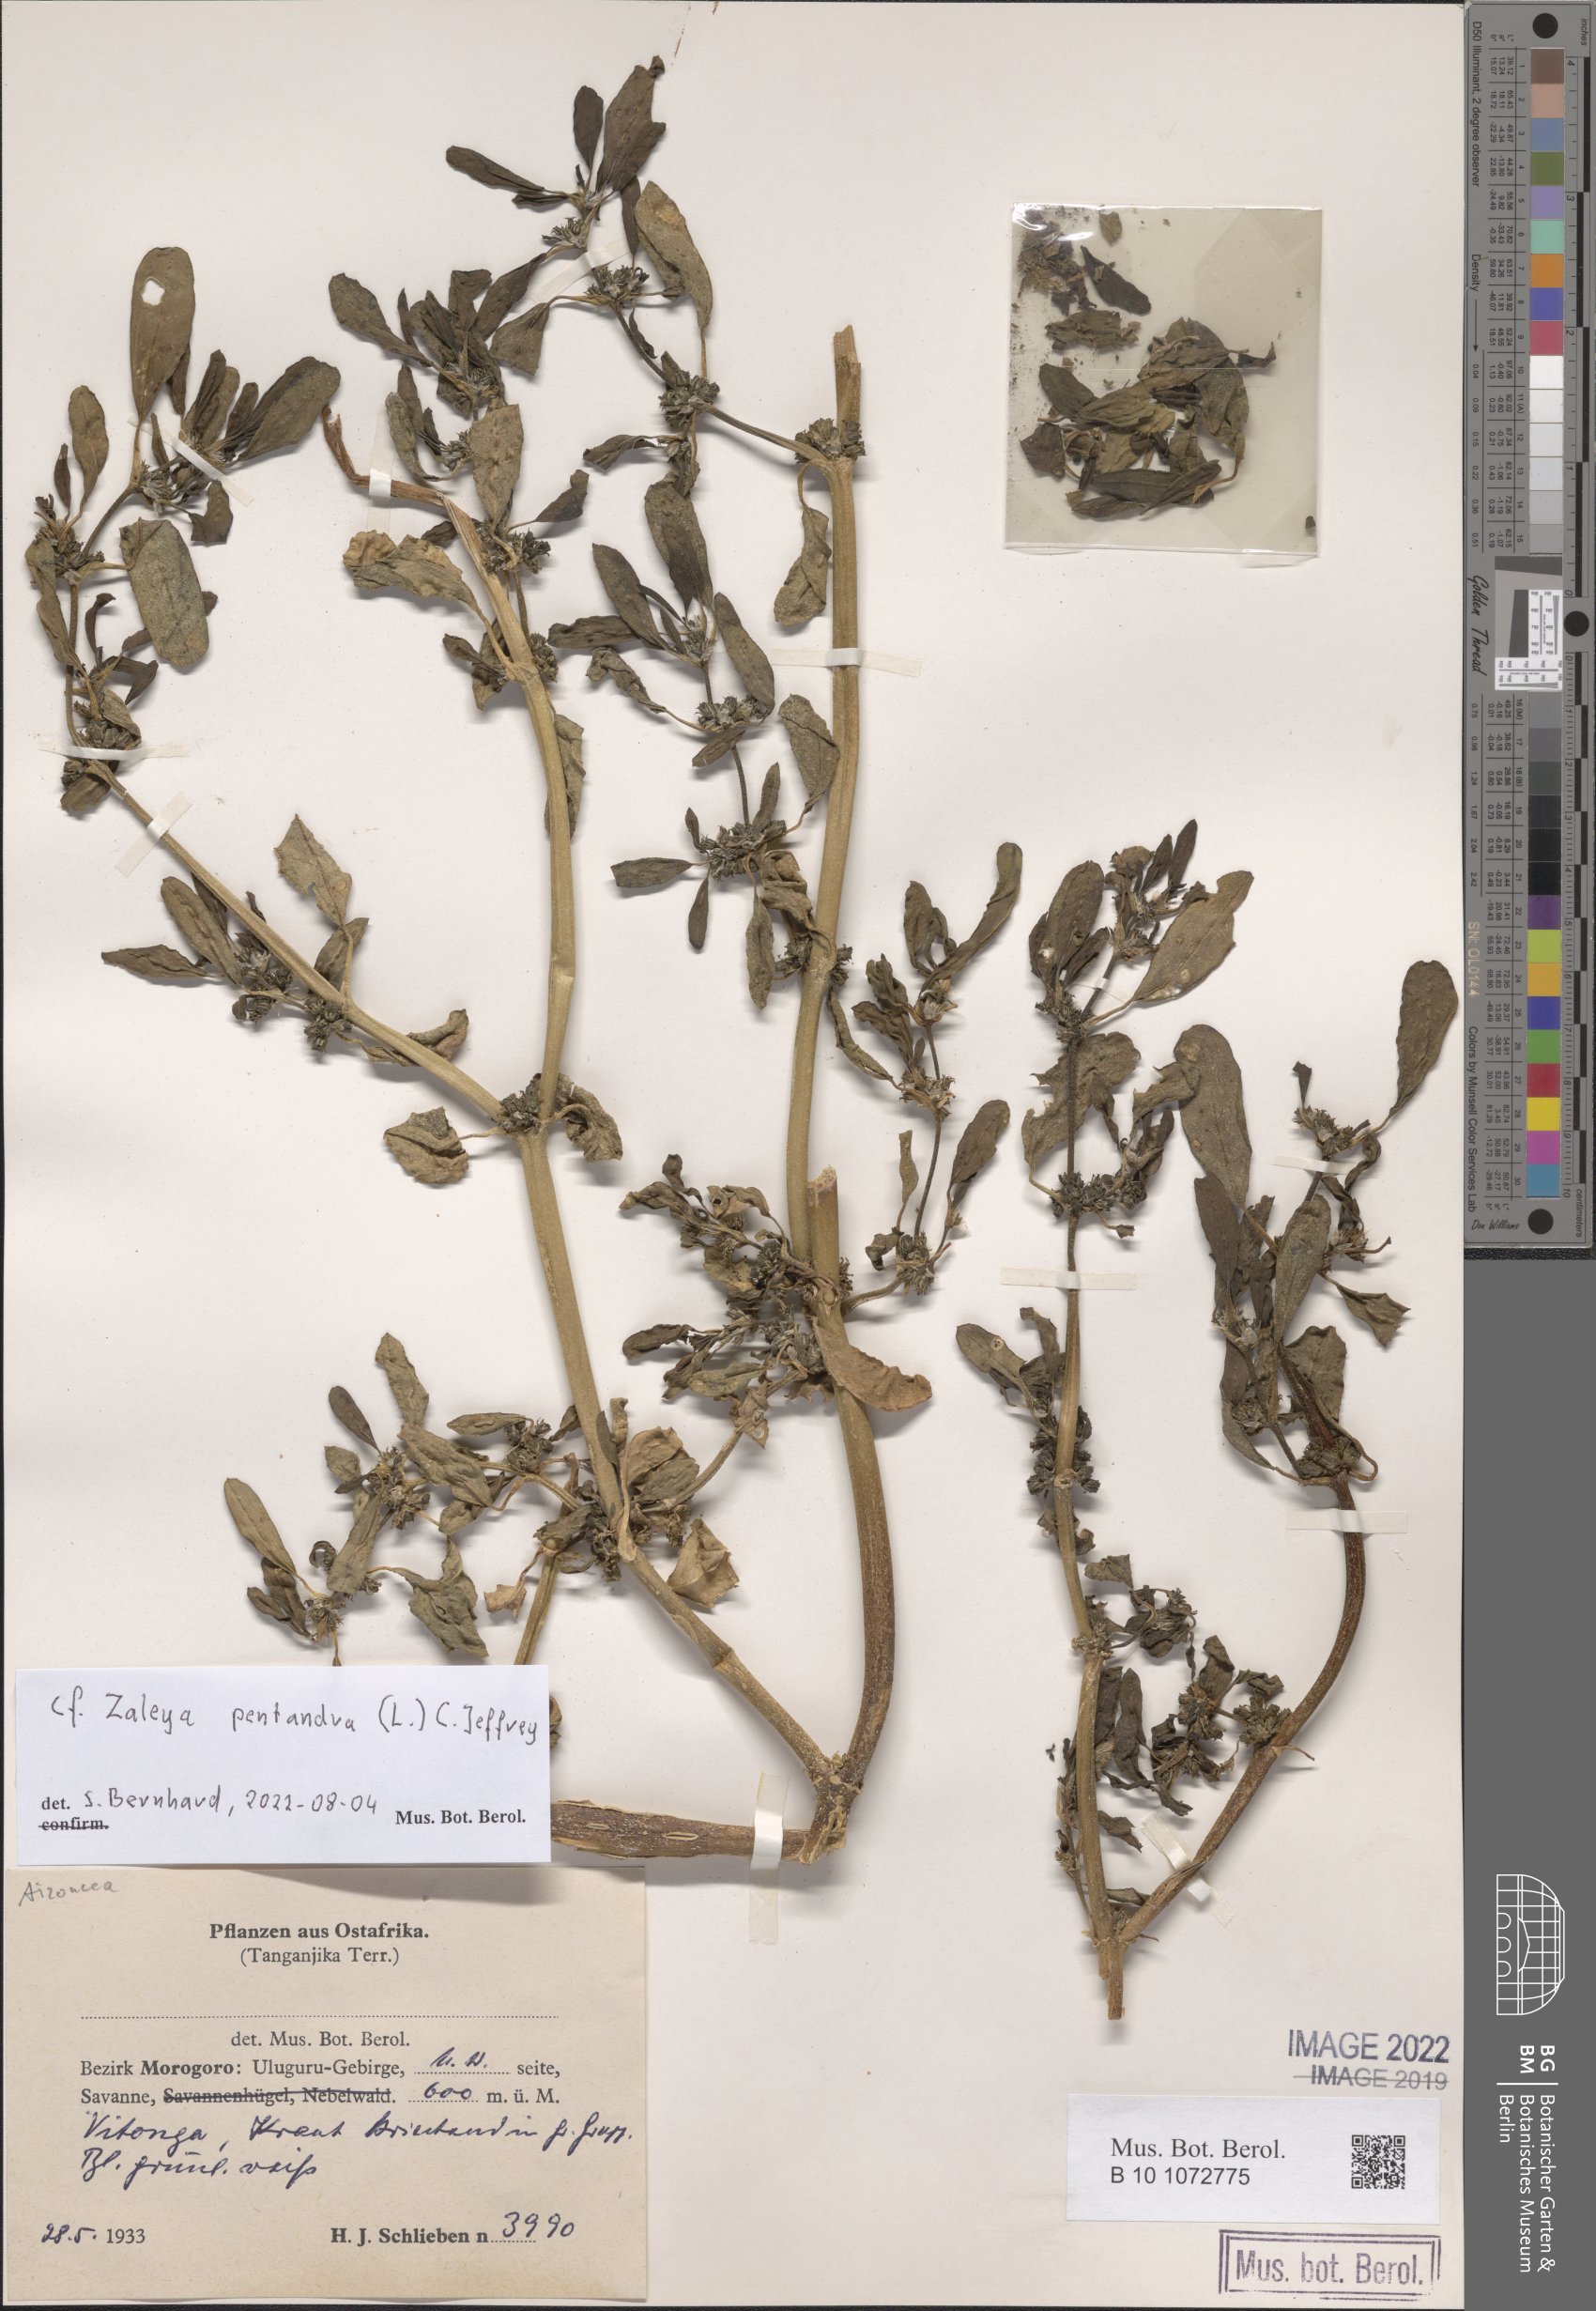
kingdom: Plantae
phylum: Tracheophyta
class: Magnoliopsida
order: Caryophyllales
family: Aizoaceae
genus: Zaleya
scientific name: Zaleya pentandra
